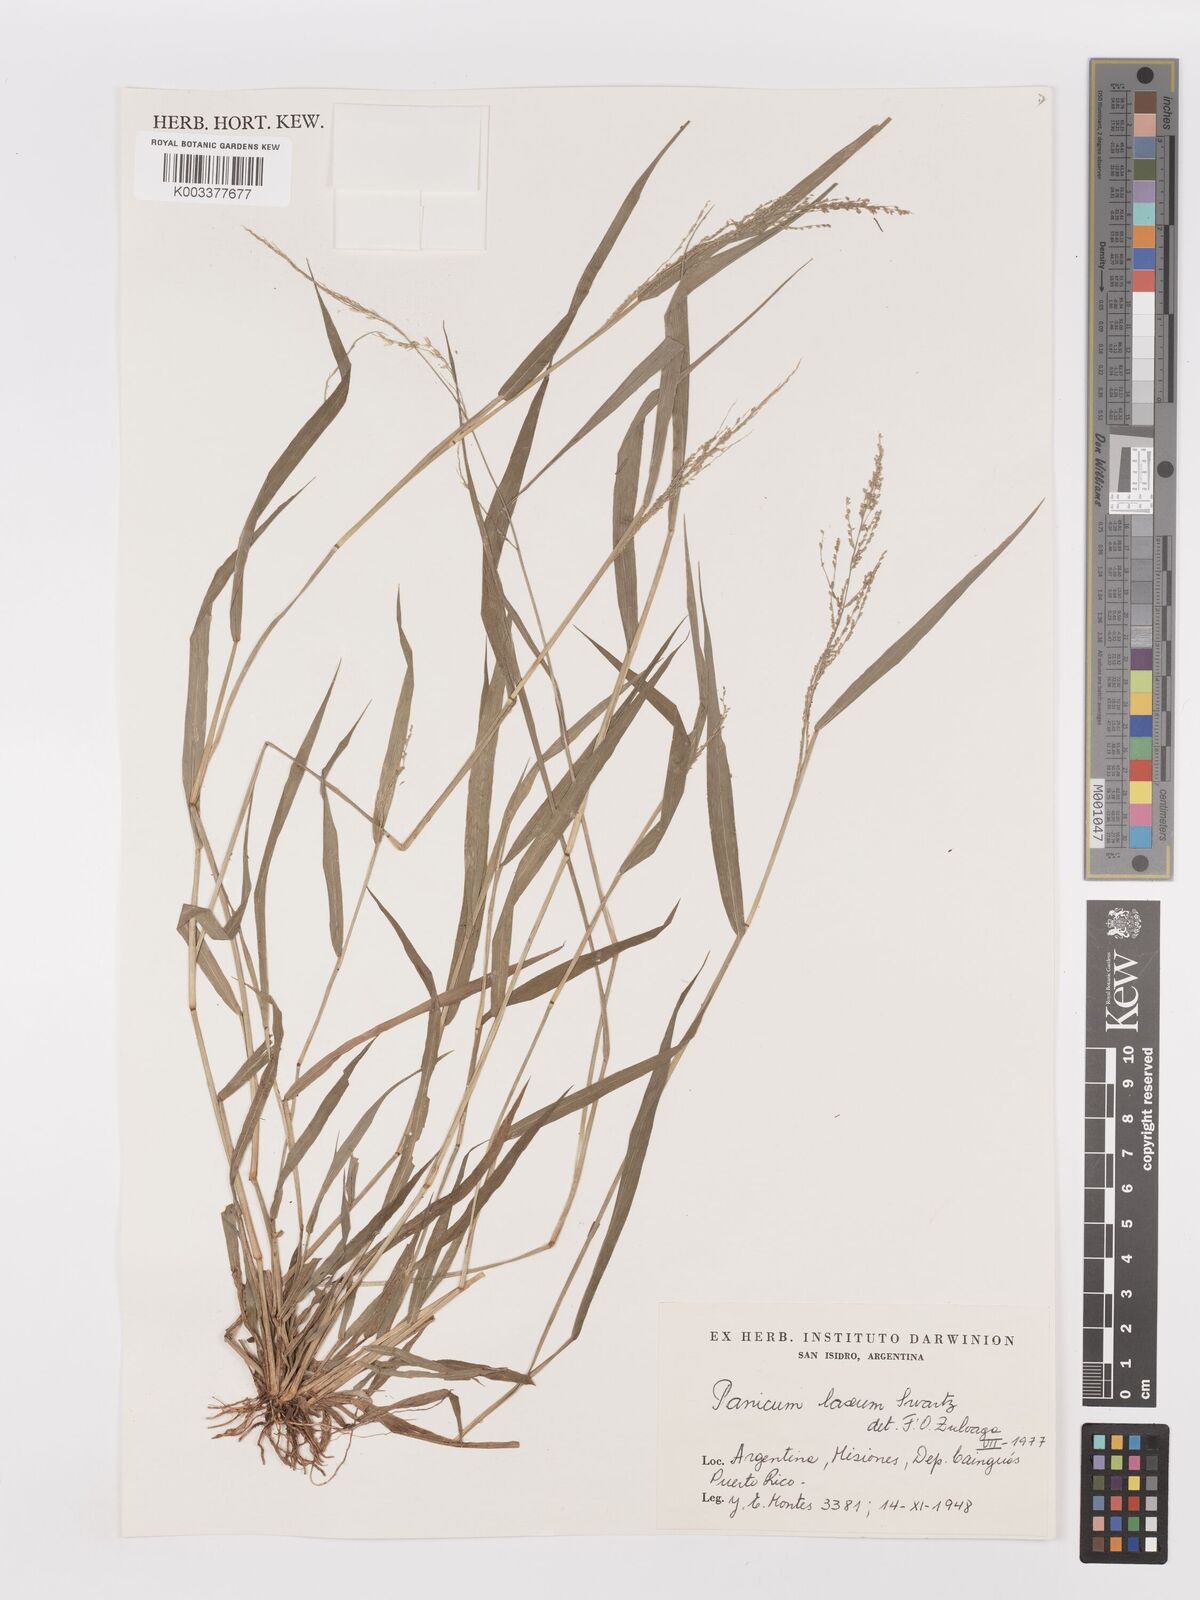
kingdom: Plantae
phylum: Tracheophyta
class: Liliopsida
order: Poales
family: Poaceae
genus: Steinchisma
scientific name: Steinchisma laxum
